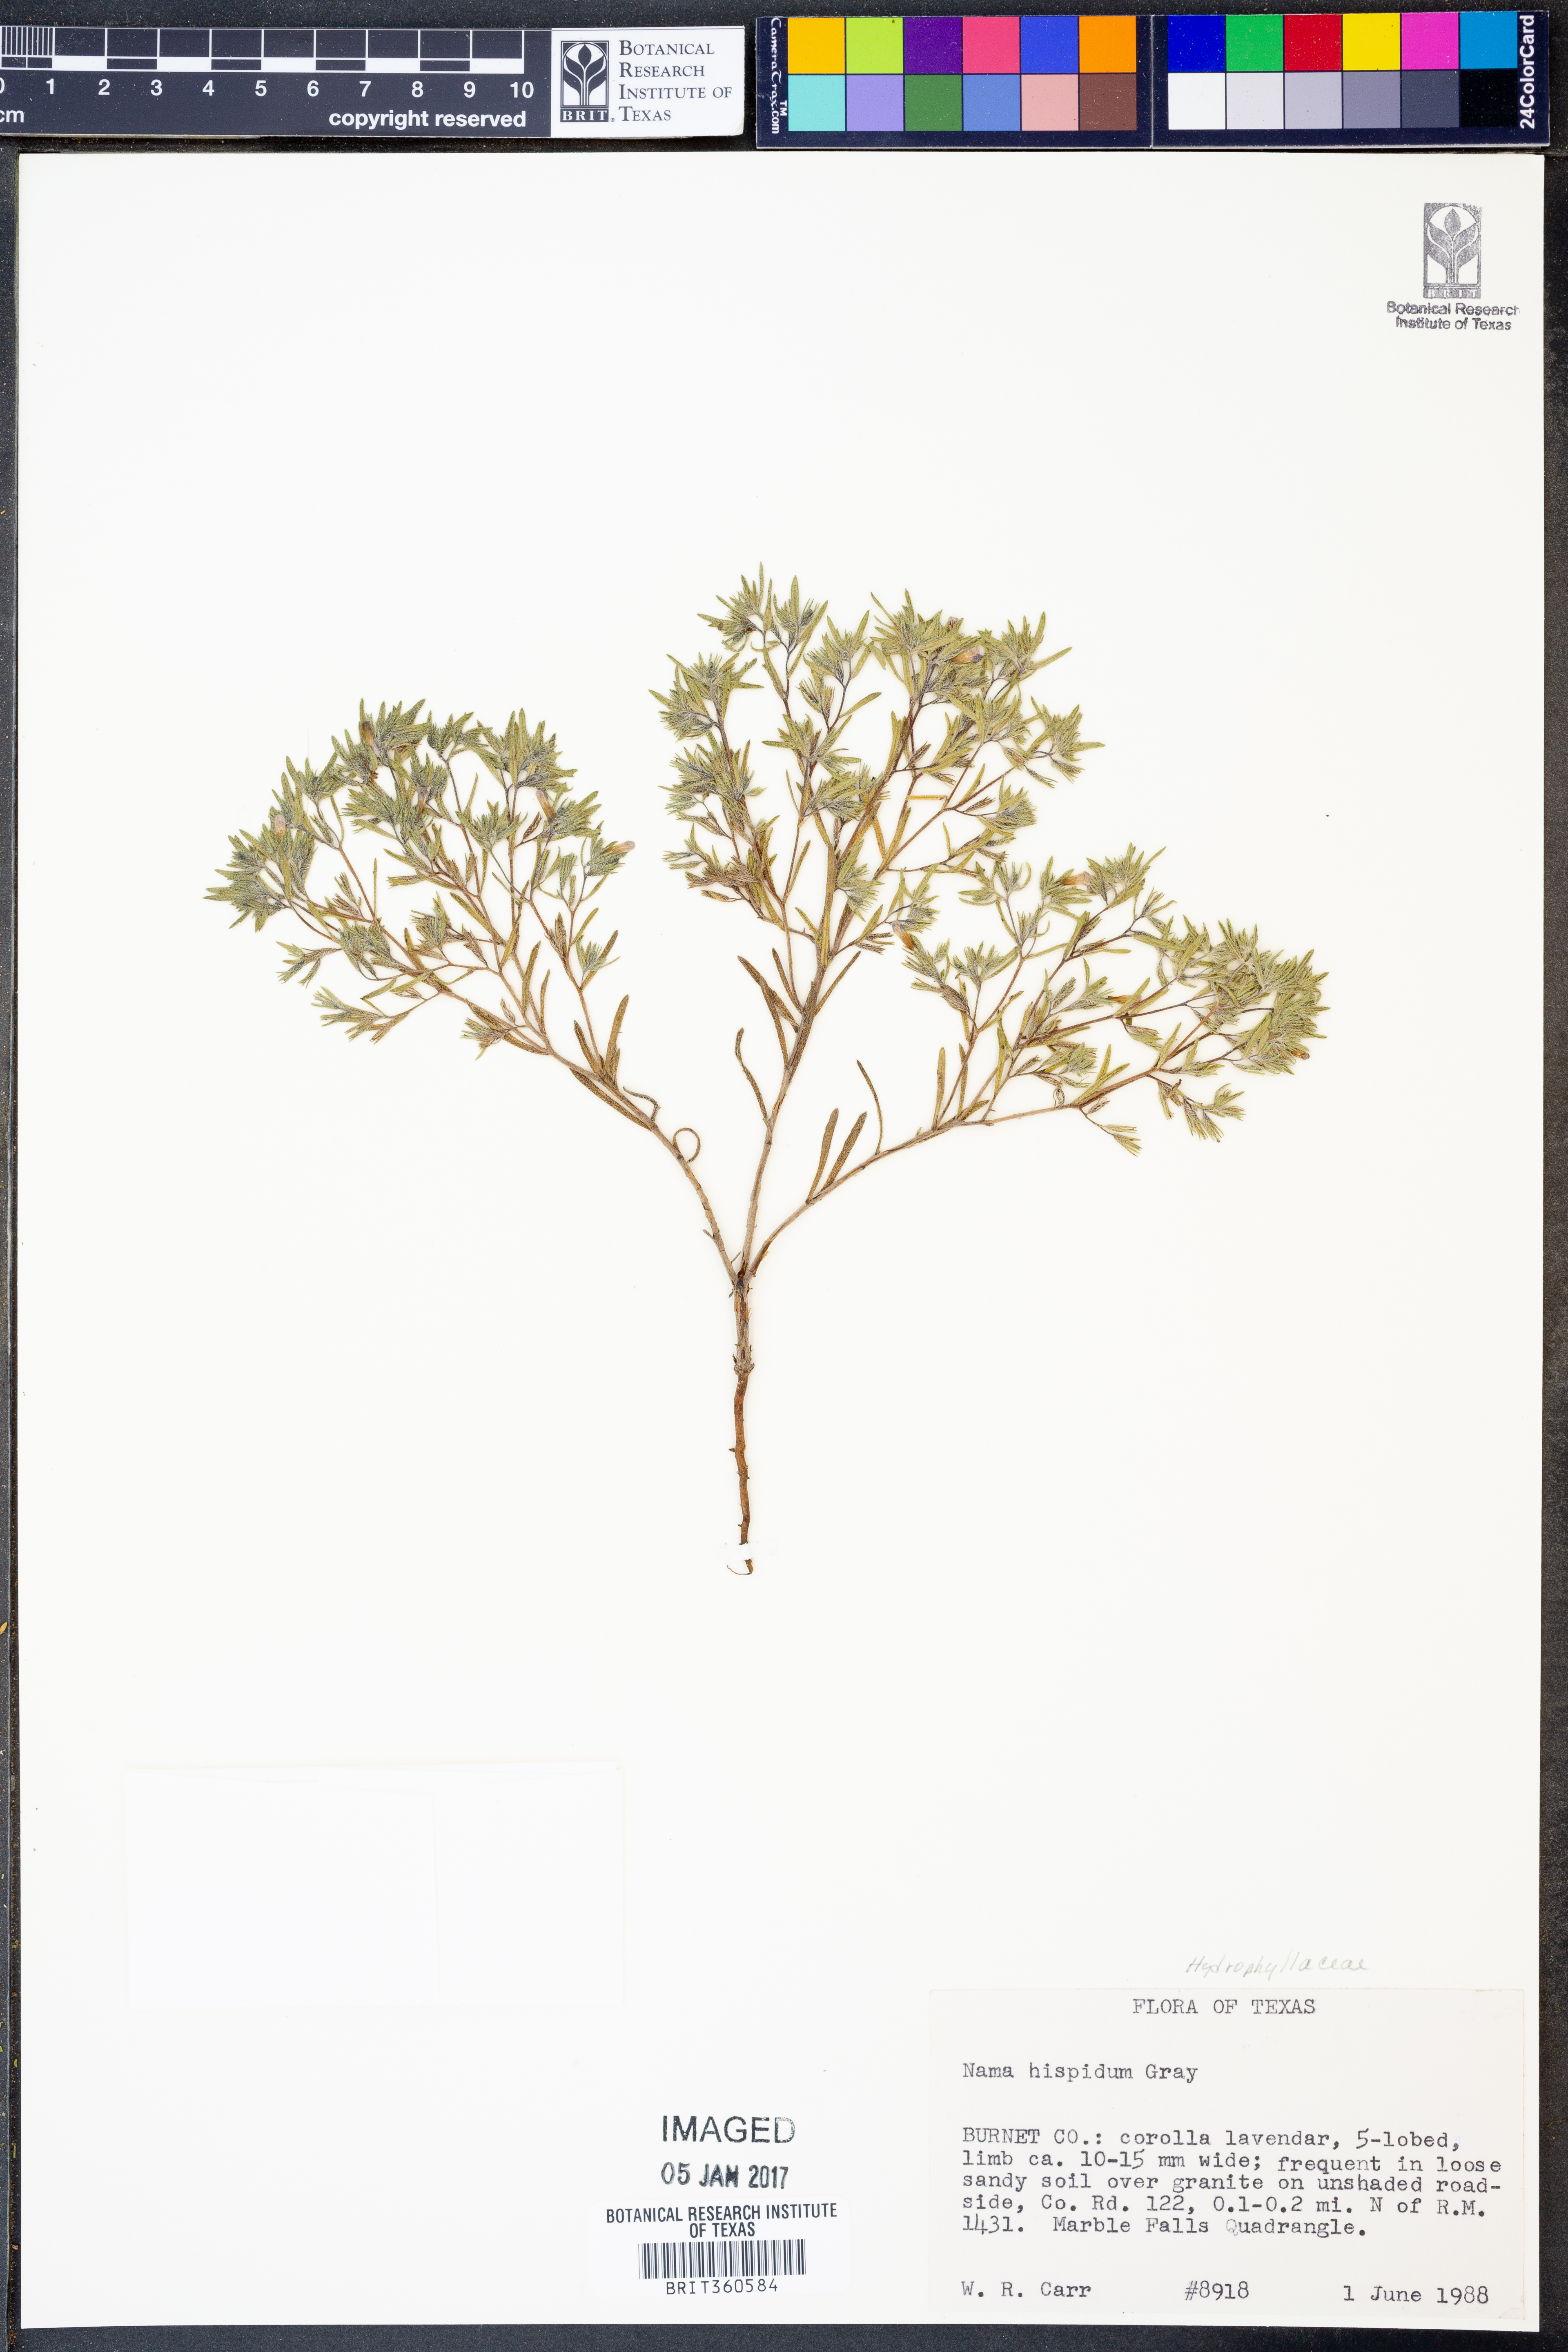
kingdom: Plantae
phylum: Tracheophyta
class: Magnoliopsida
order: Boraginales
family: Namaceae
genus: Nama
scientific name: Nama hispida
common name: Bristly nama
